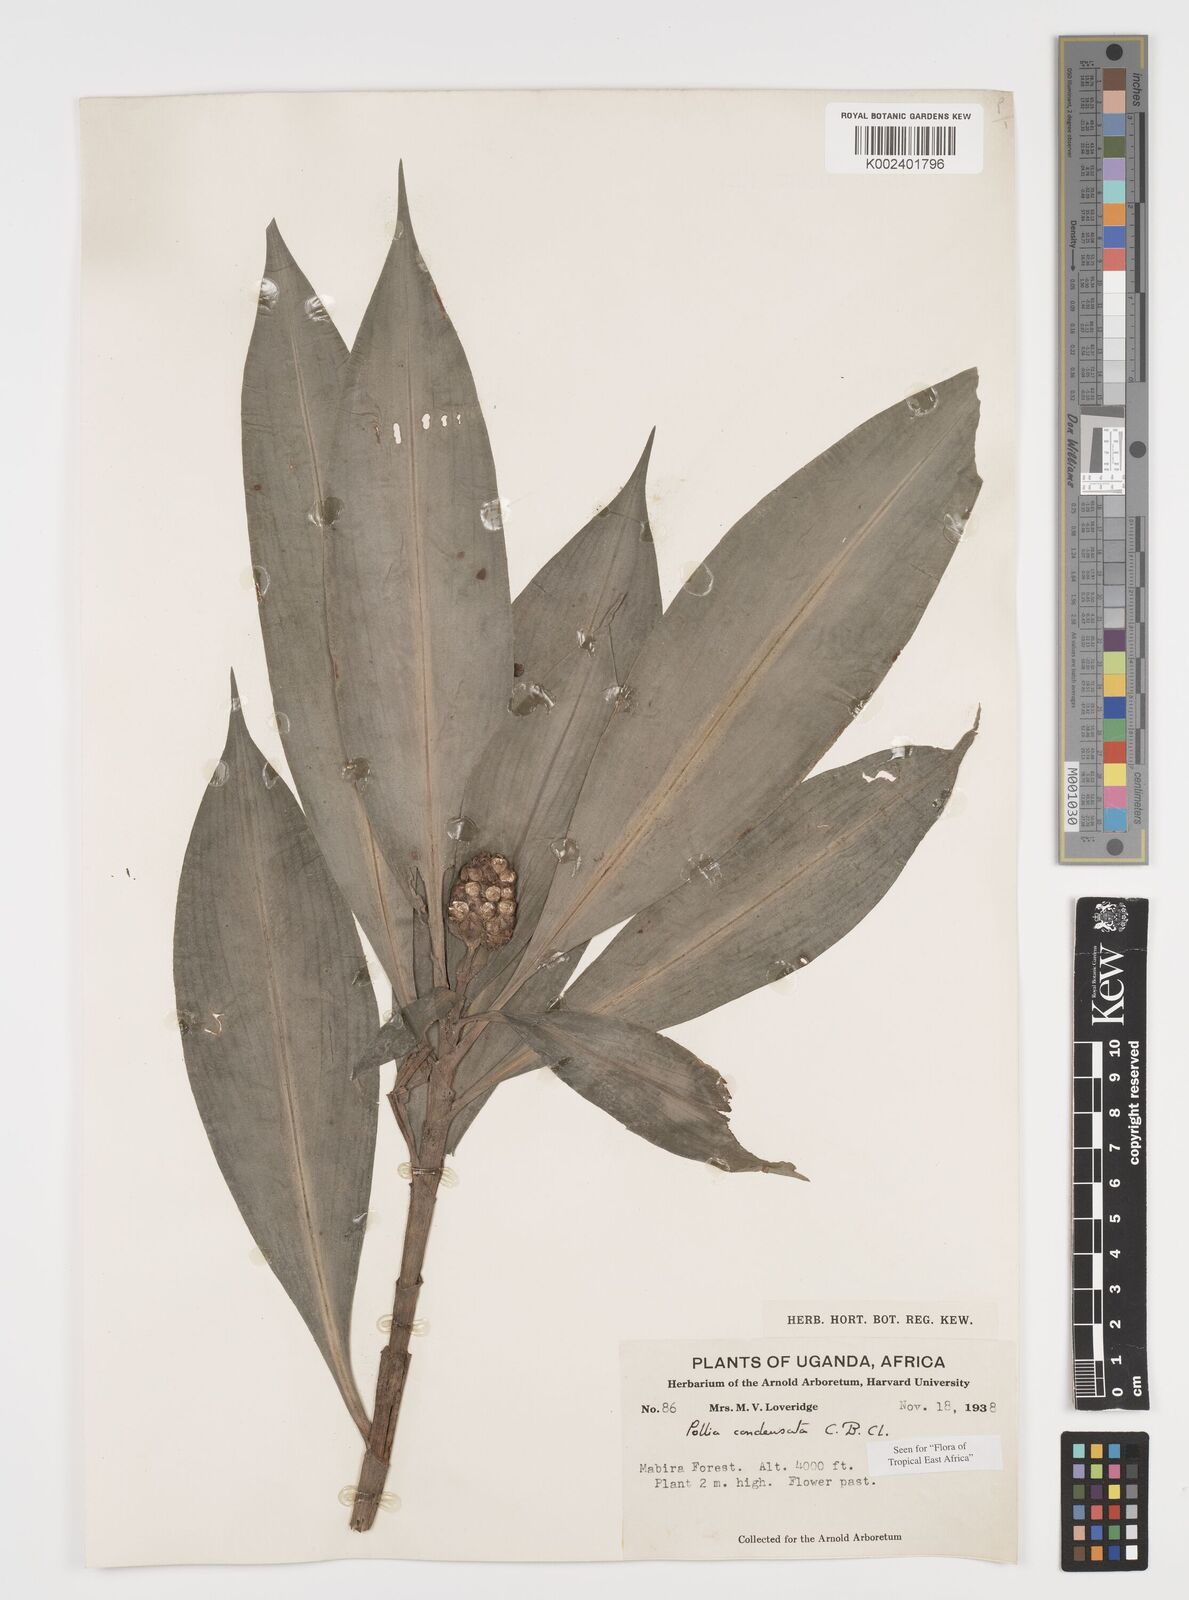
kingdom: Plantae
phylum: Tracheophyta
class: Liliopsida
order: Commelinales
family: Commelinaceae
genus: Pollia
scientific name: Pollia condensata
